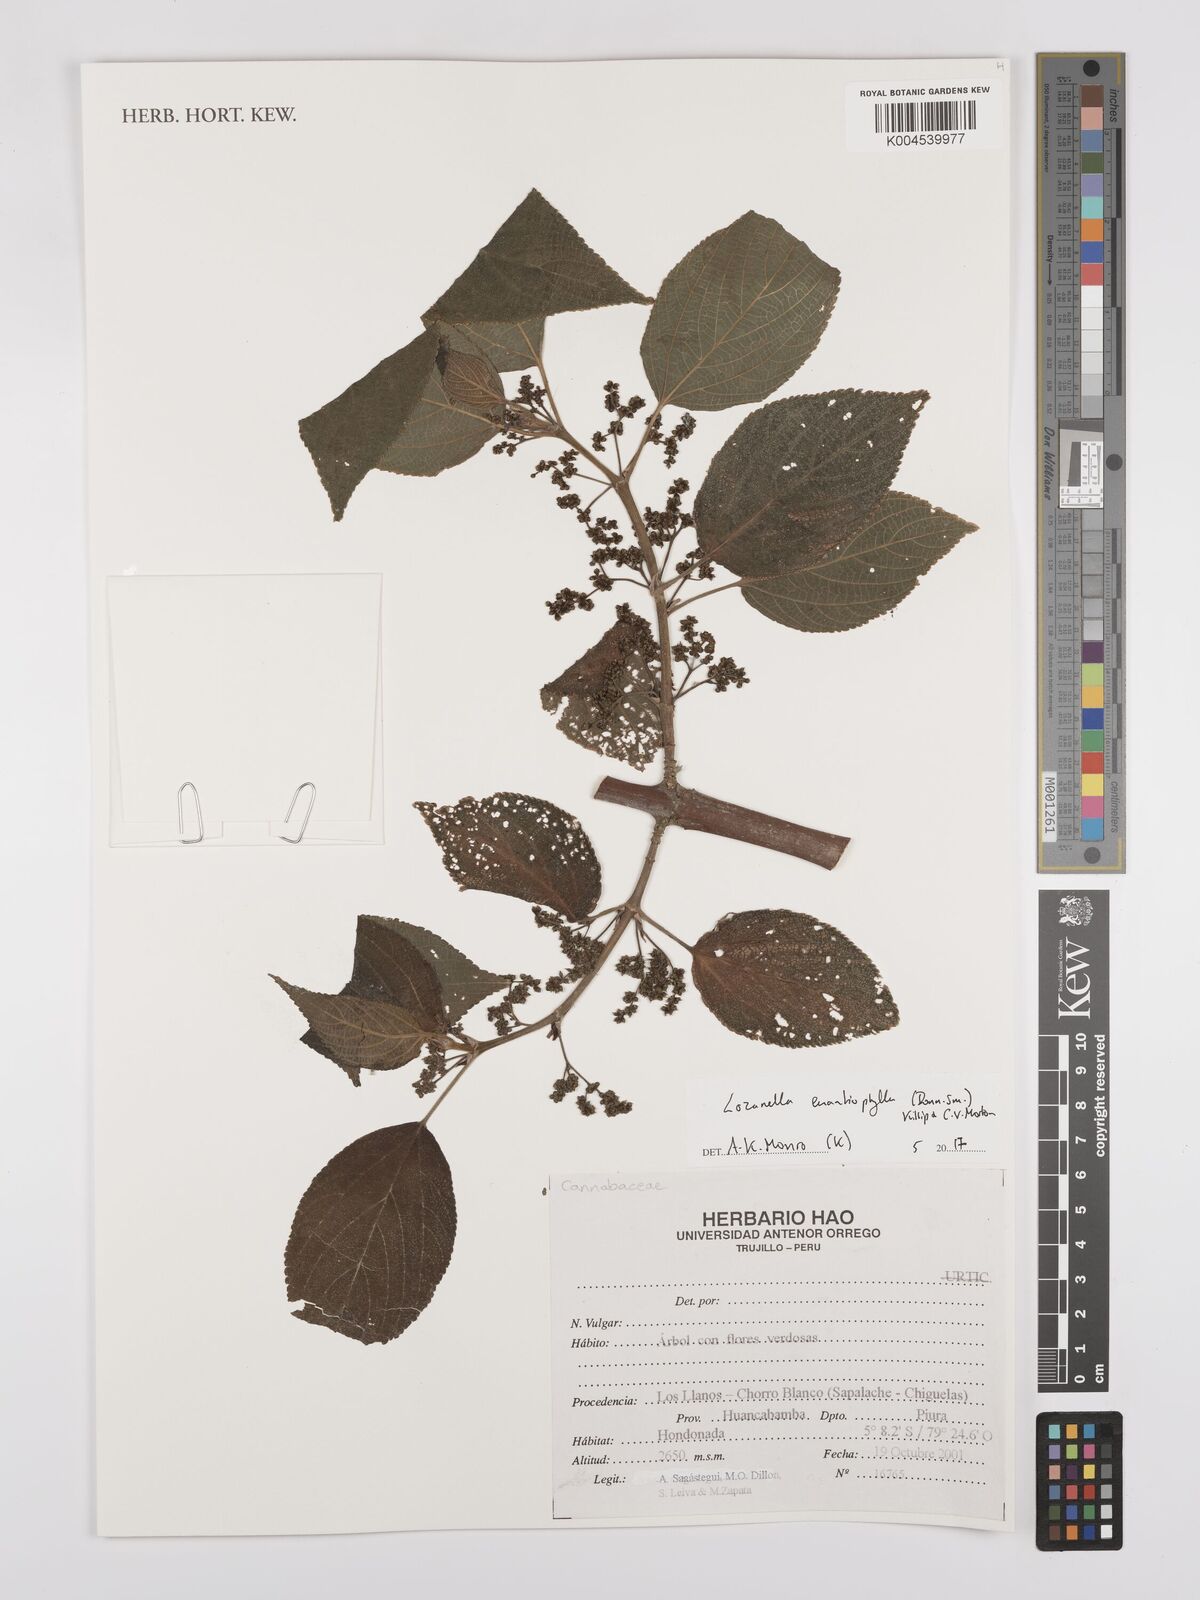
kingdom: Plantae
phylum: Tracheophyta
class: Magnoliopsida
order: Rosales
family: Cannabaceae
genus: Lozanella
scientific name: Lozanella enantiophylla
